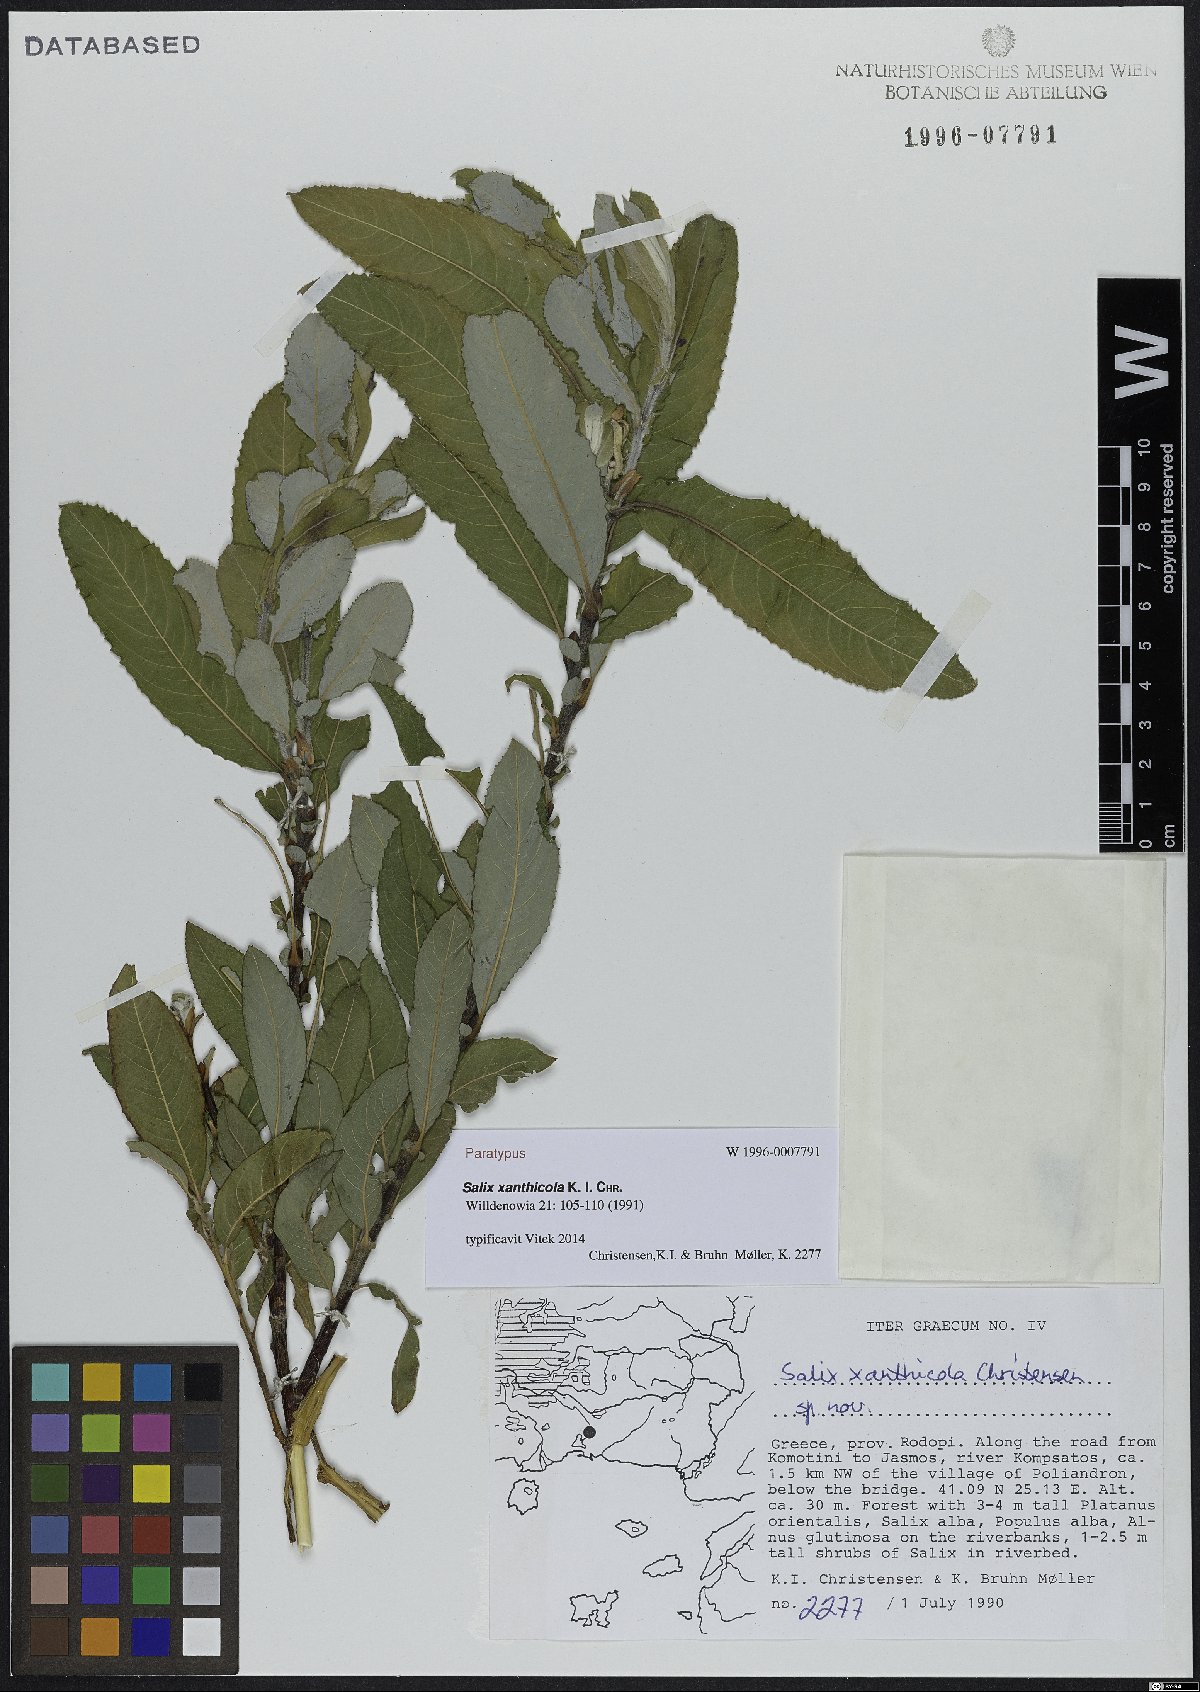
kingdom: Plantae
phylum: Tracheophyta
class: Magnoliopsida
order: Malpighiales
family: Salicaceae
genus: Salix
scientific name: Salix xanthicola
